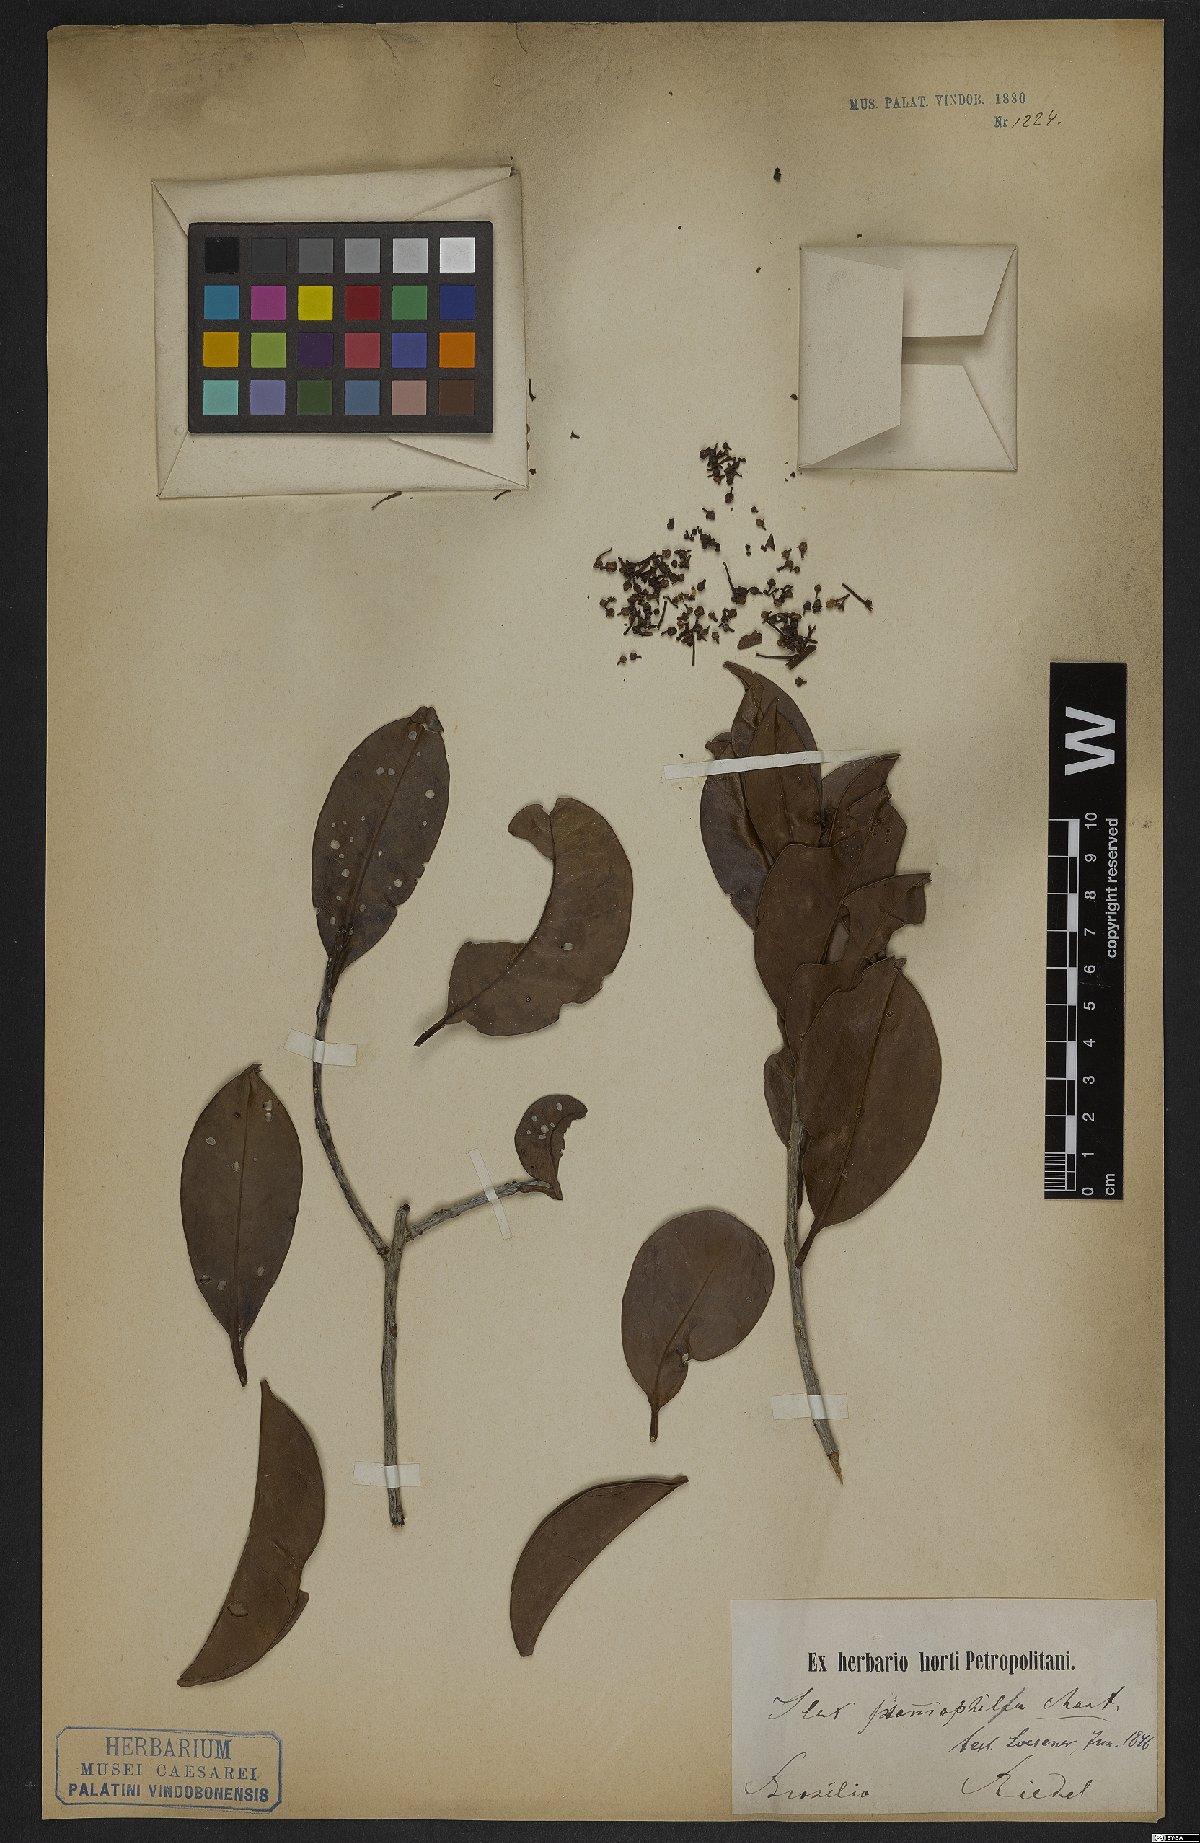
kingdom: Plantae
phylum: Tracheophyta
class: Magnoliopsida
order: Aquifoliales
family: Aquifoliaceae
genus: Ilex
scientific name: Ilex psammophila
